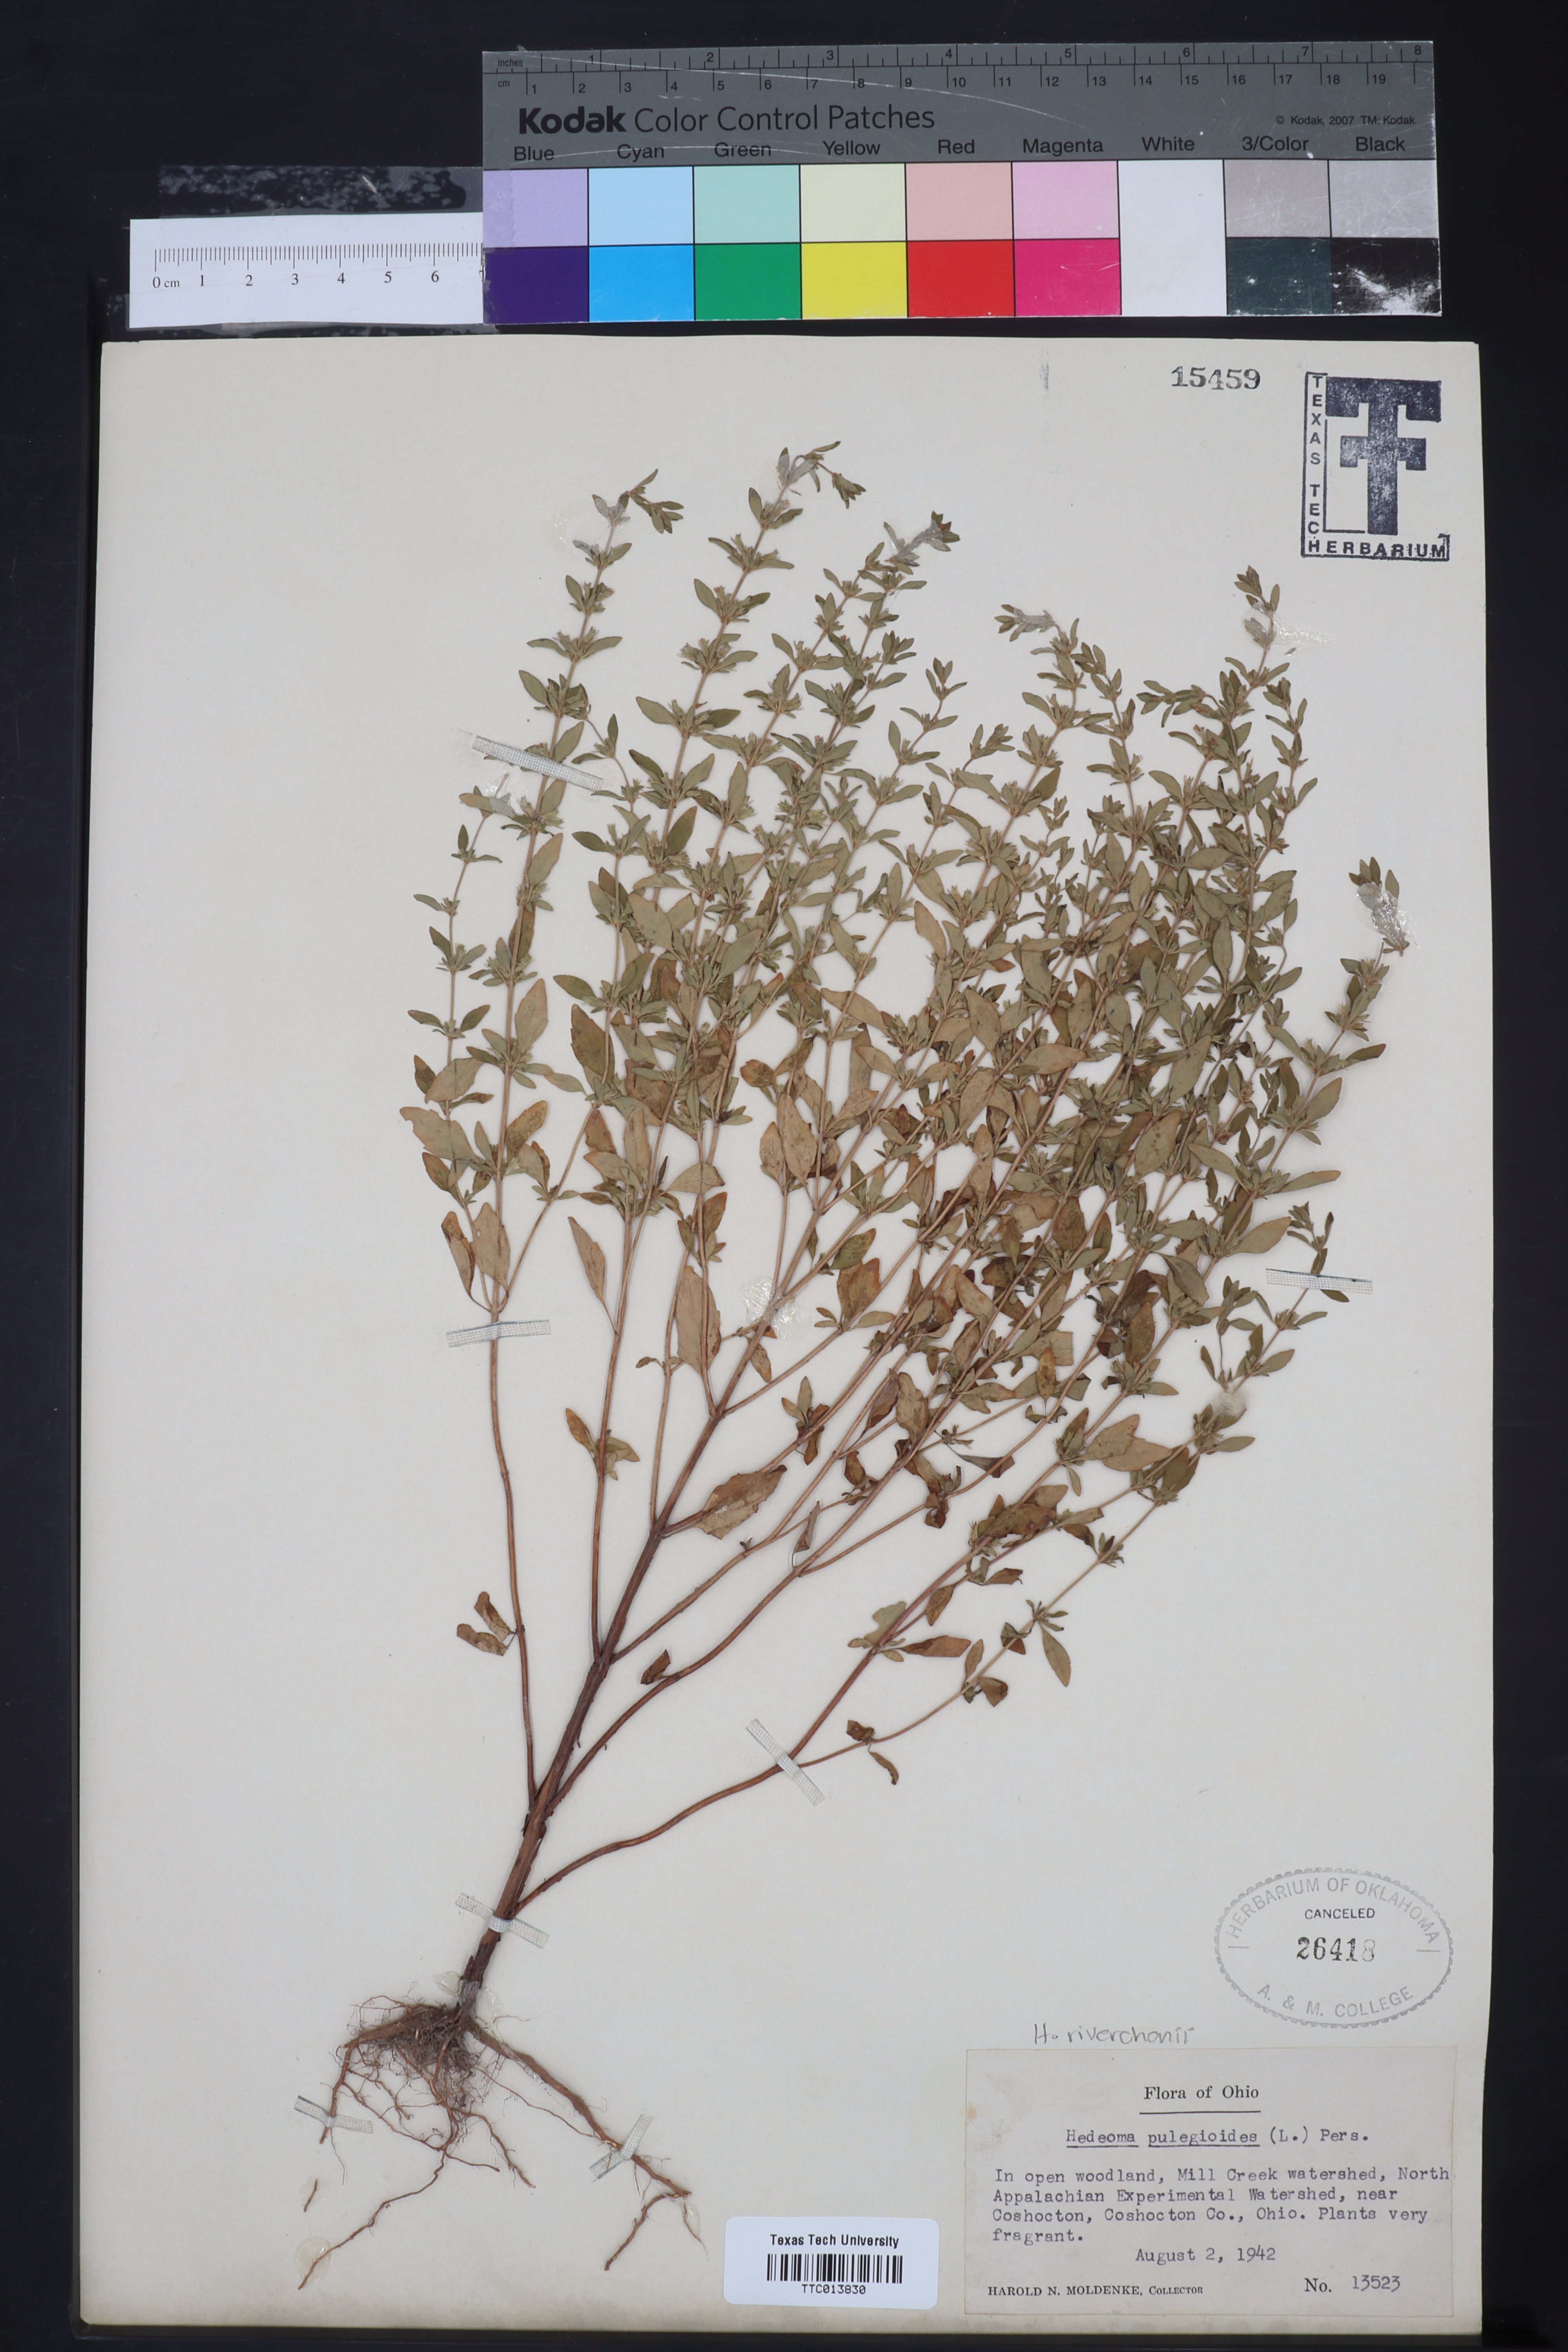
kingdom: Plantae
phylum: Tracheophyta
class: Magnoliopsida
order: Lamiales
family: Lamiaceae
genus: Hedeoma
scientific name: Hedeoma pulegioides
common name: American false pennyroyal
